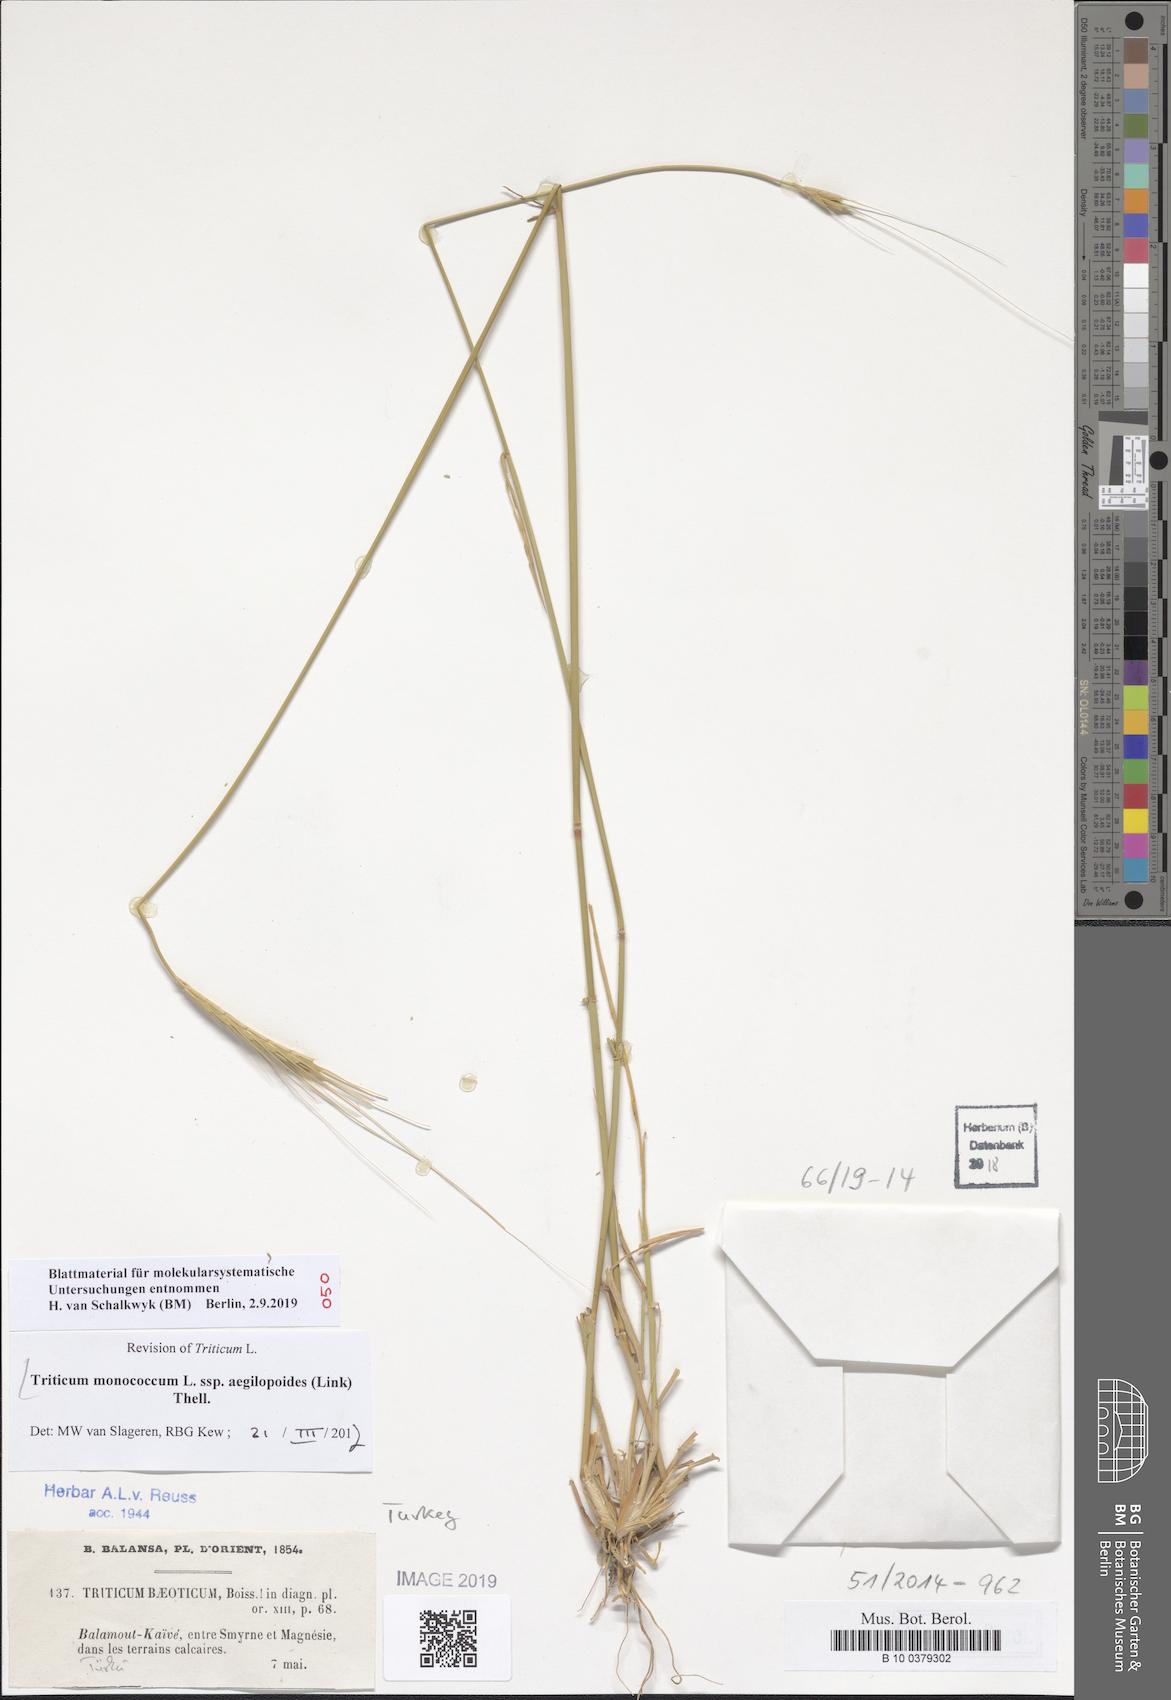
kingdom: Plantae
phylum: Tracheophyta
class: Liliopsida
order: Poales
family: Poaceae
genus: Triticum
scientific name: Triticum monococcum
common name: Einkorn
